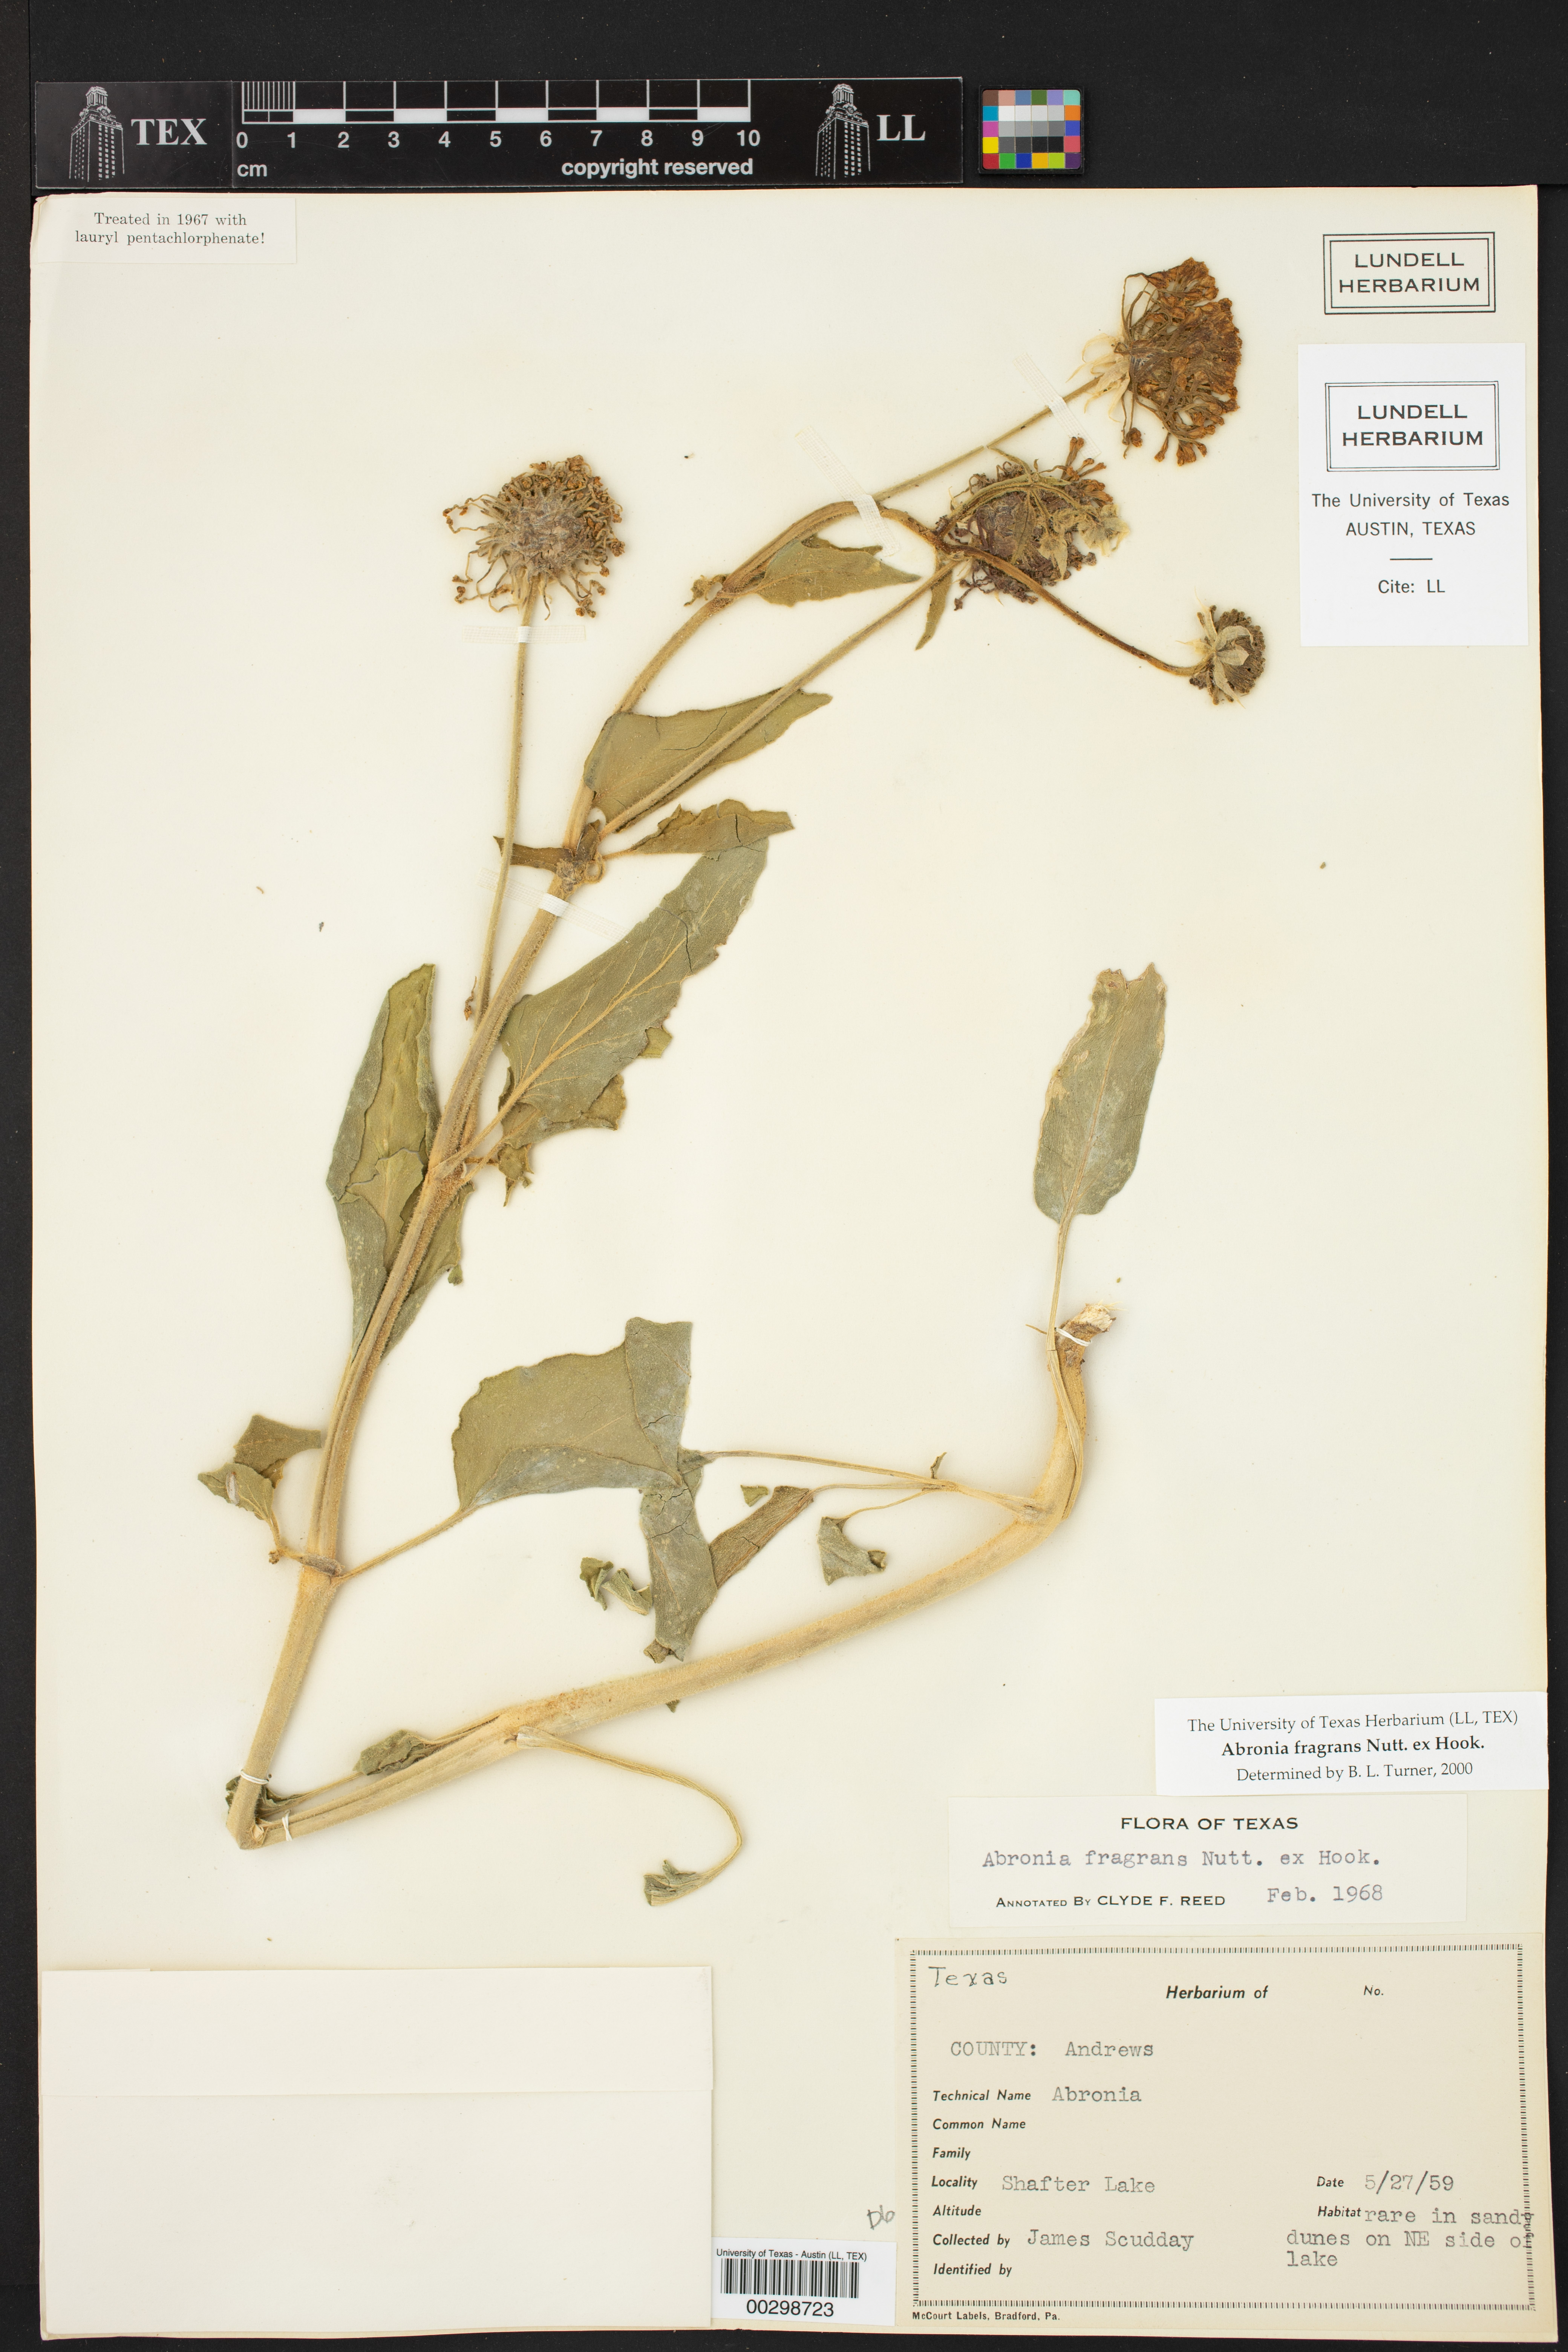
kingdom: Plantae
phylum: Tracheophyta
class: Magnoliopsida
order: Caryophyllales
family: Nyctaginaceae
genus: Abronia
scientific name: Abronia fragrans
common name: Fragrant sand-verbena
